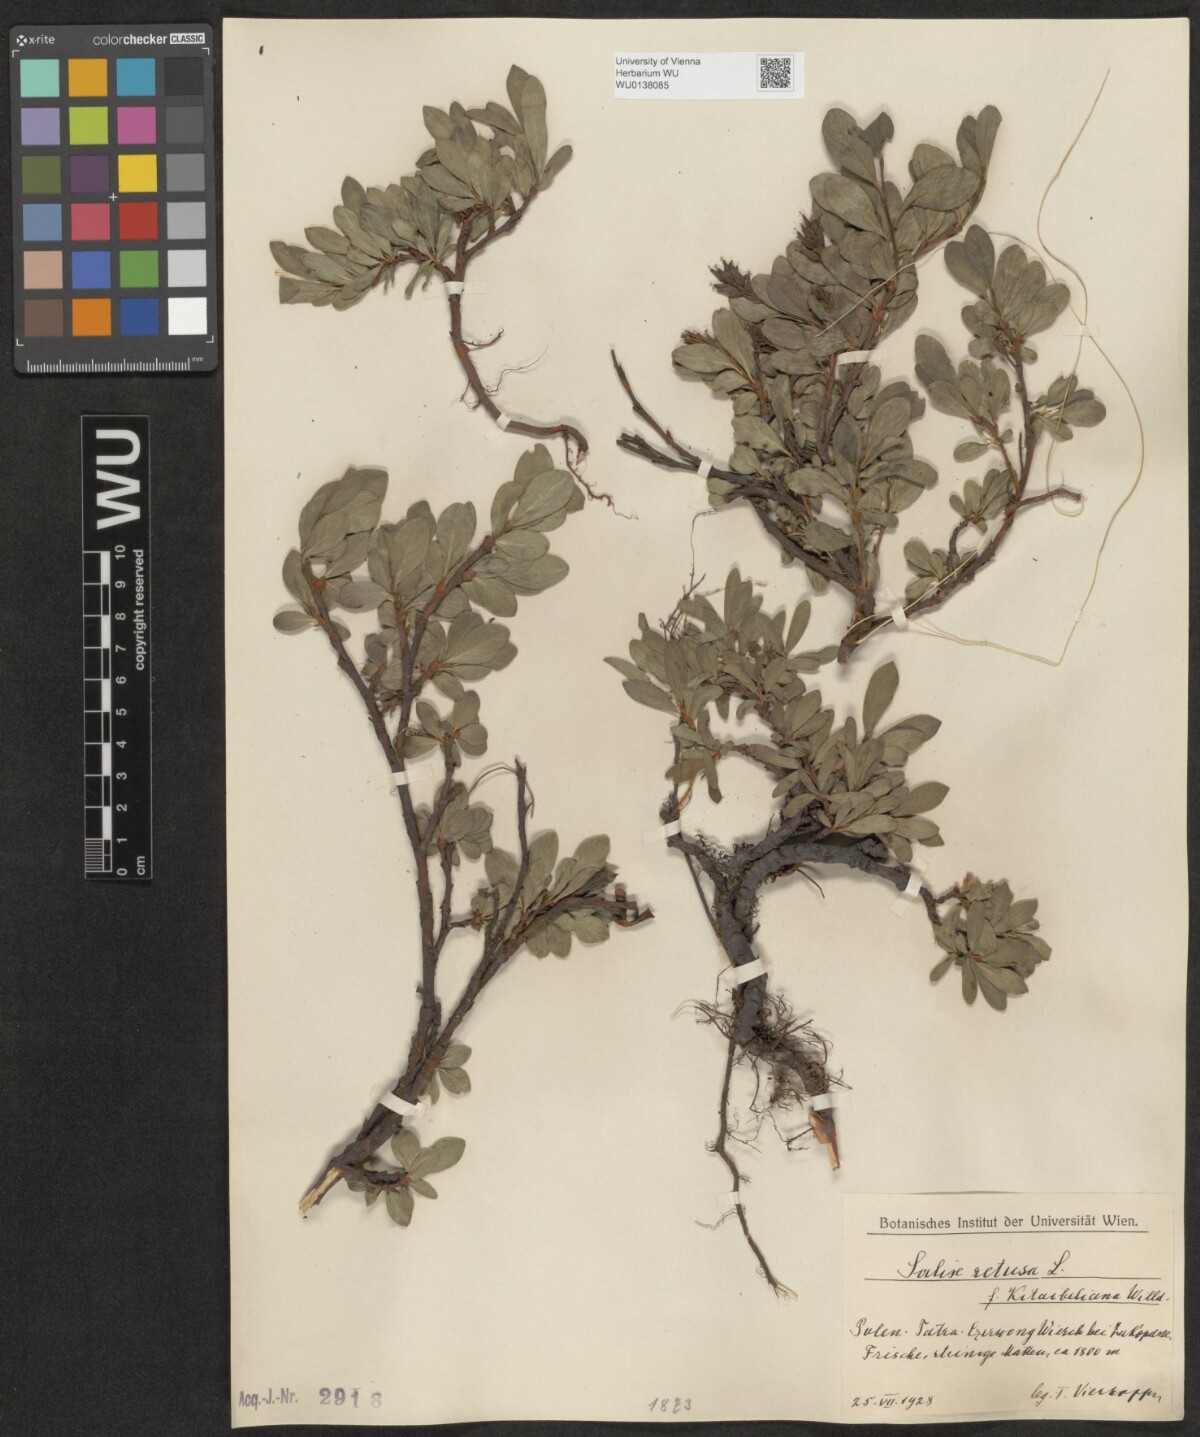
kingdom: Plantae
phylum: Tracheophyta
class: Magnoliopsida
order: Malpighiales
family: Salicaceae
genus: Salix
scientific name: Salix retusa
